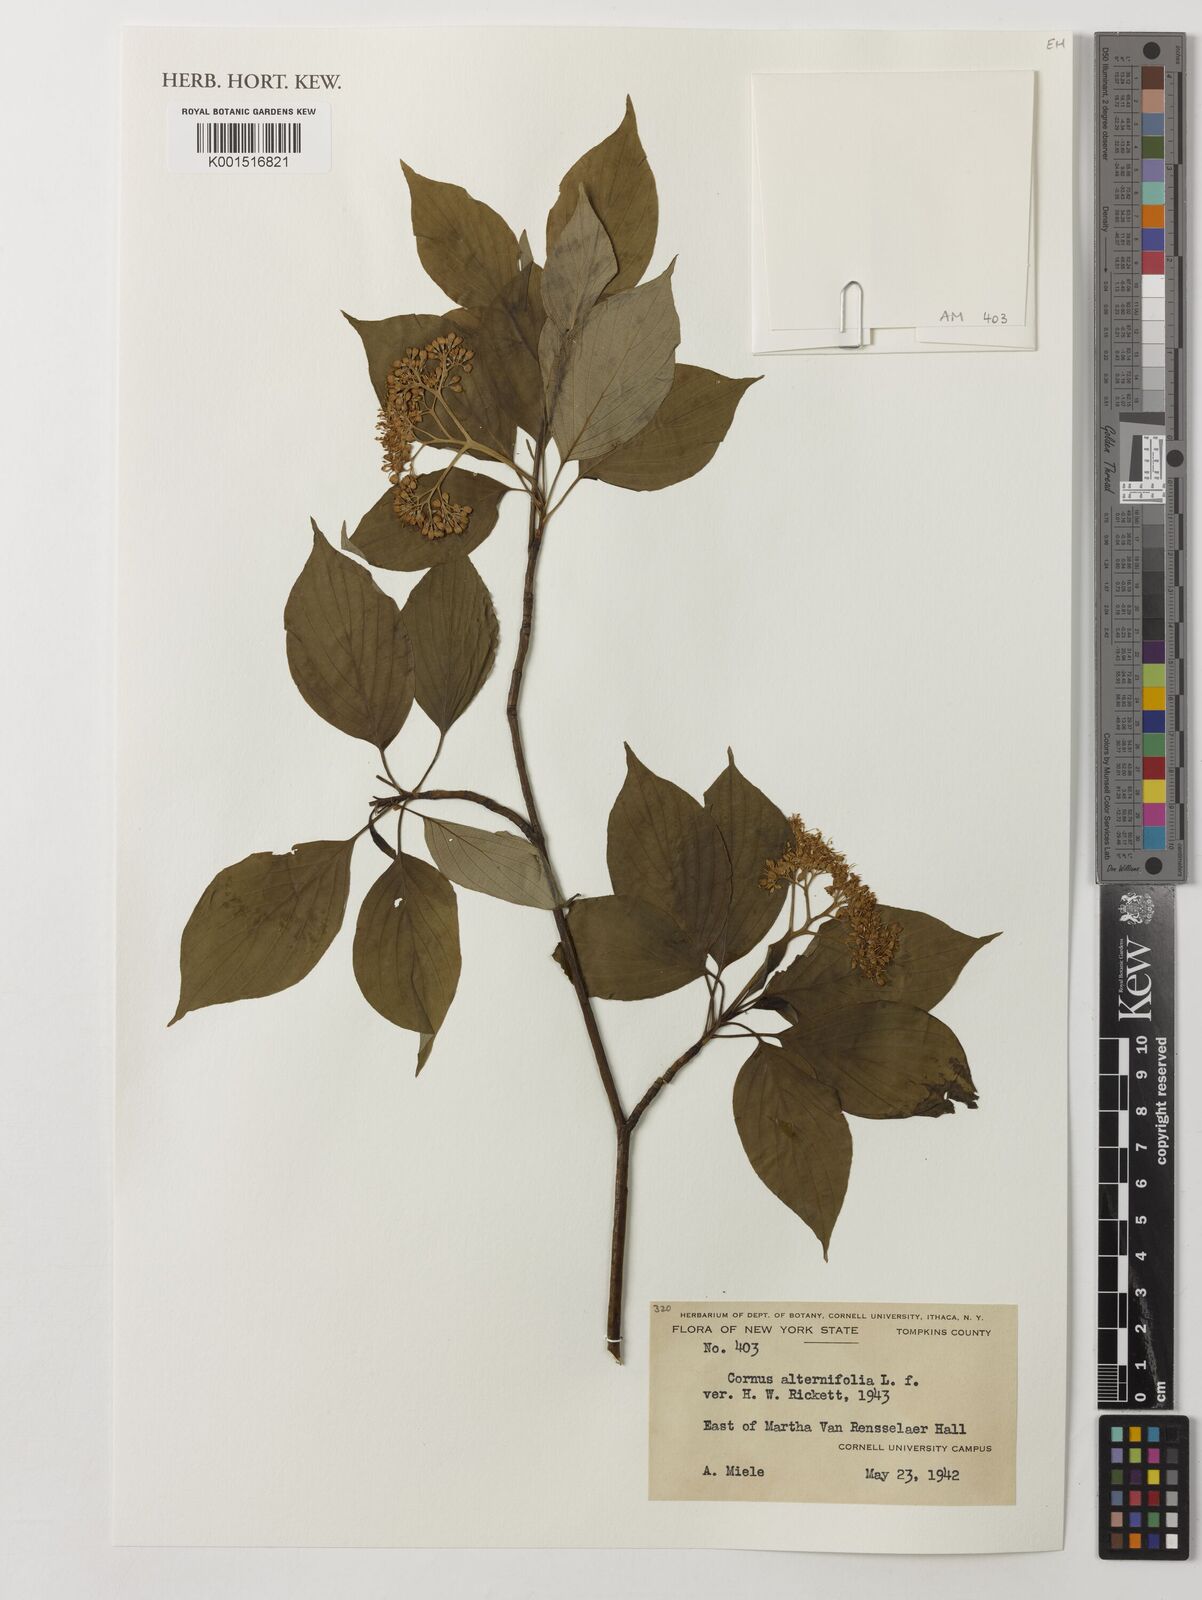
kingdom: Plantae
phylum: Tracheophyta
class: Magnoliopsida
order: Cornales
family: Cornaceae
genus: Cornus
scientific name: Cornus alternifolia
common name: Pagoda dogwood
